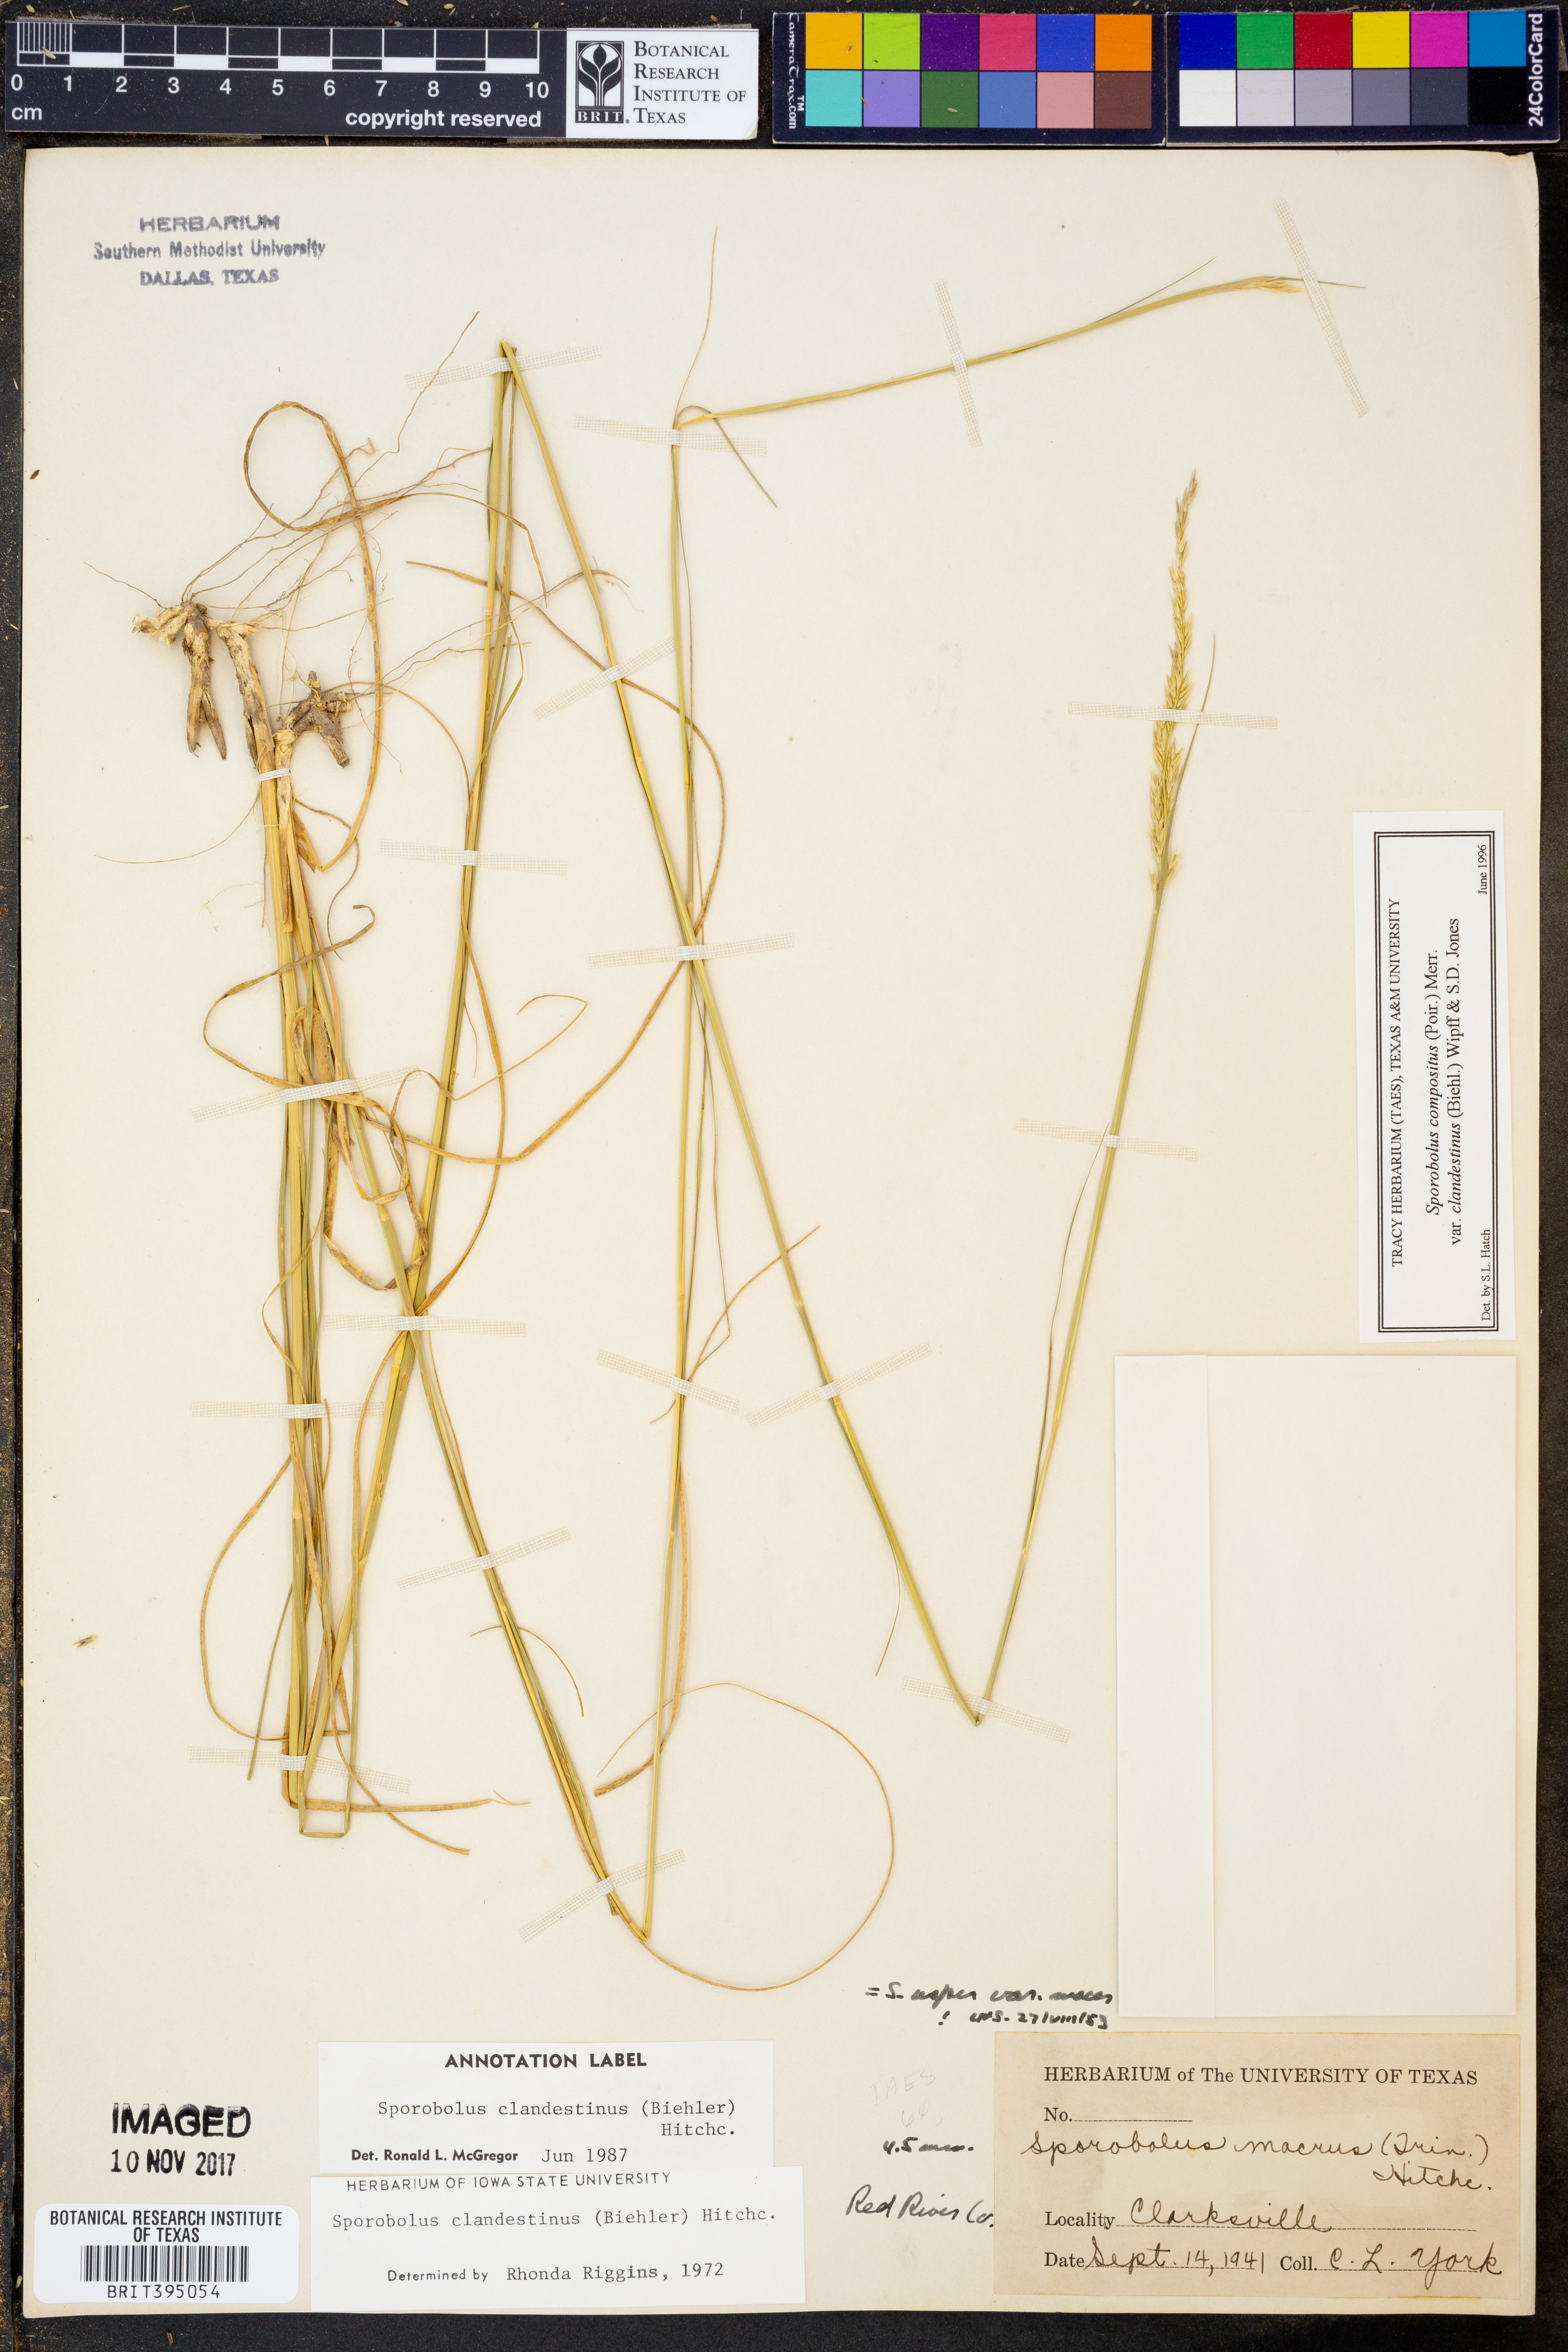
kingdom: Plantae
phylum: Tracheophyta
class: Liliopsida
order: Poales
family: Poaceae
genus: Sporobolus
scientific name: Sporobolus clandestinus
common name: Hidden dropseed
